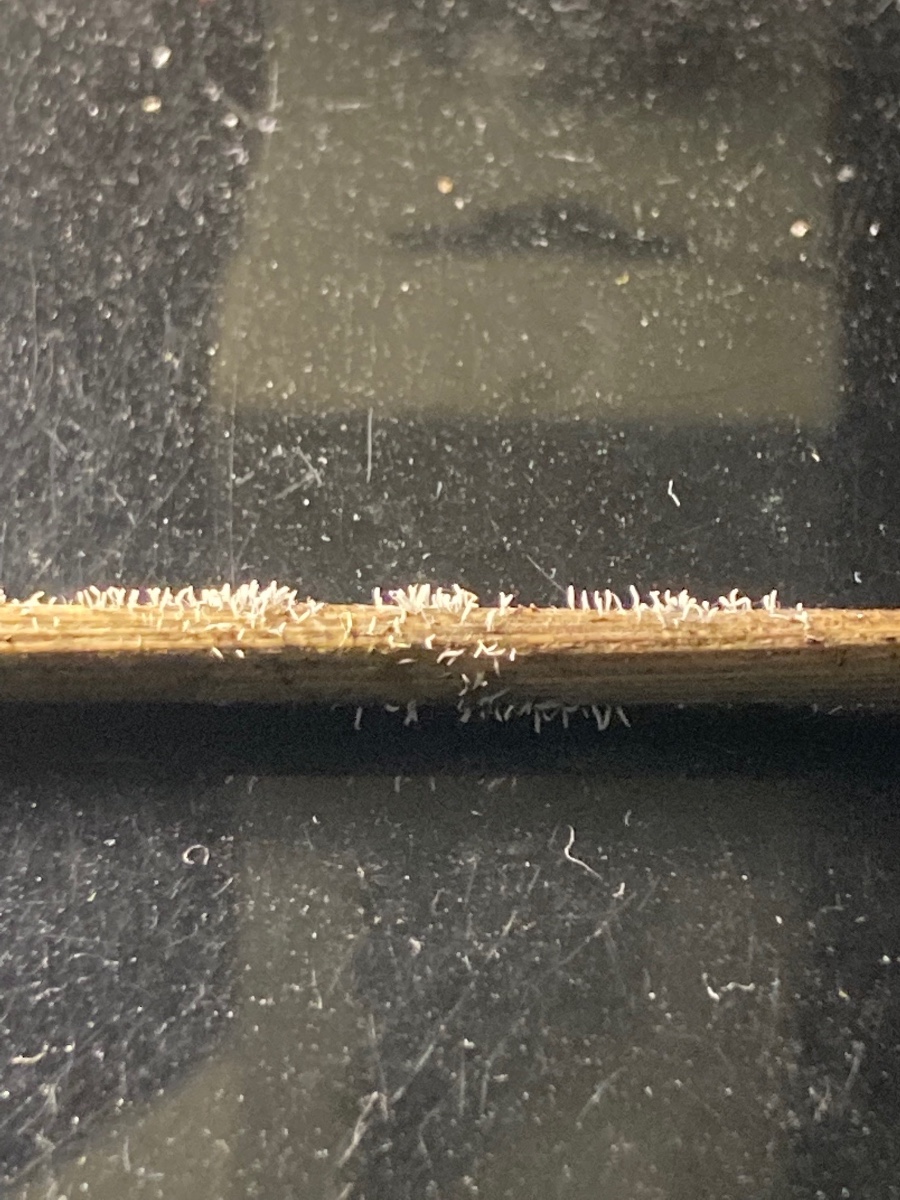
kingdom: Fungi
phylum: Basidiomycota
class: Agaricomycetes
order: Gomphales
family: Gomphaceae
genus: Ceratellopsis
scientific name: Ceratellopsis acuminata
